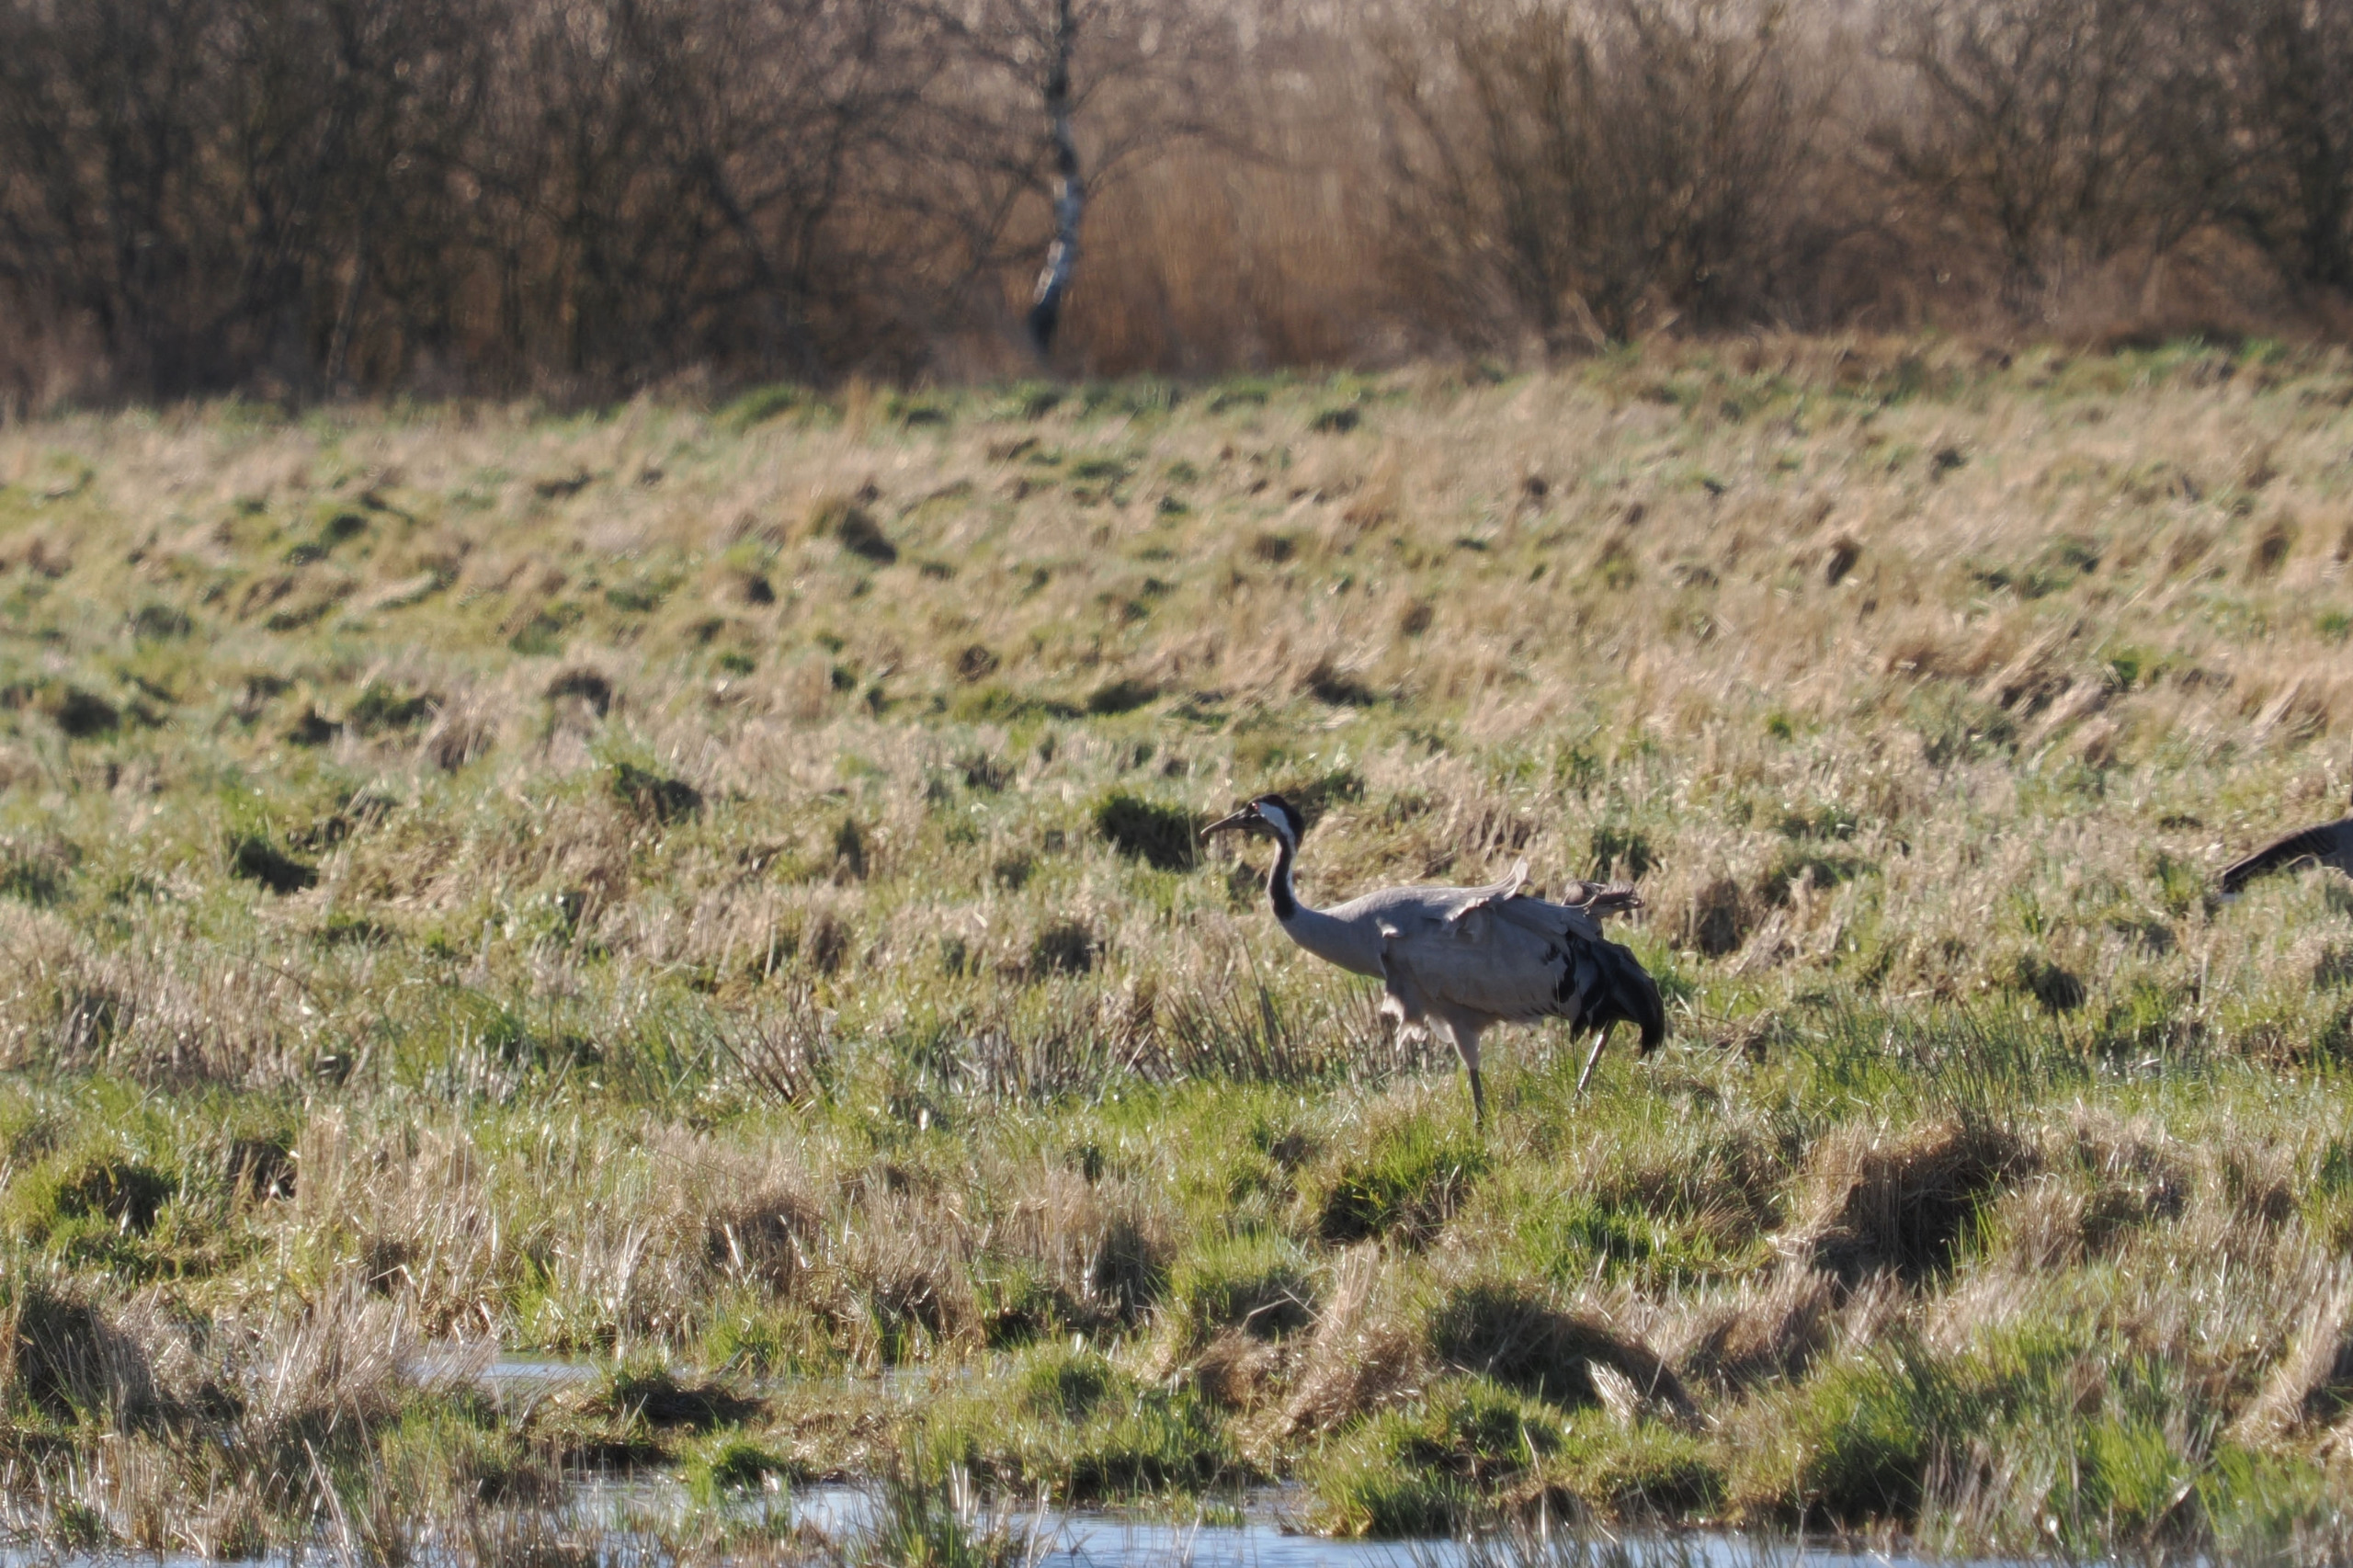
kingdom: Animalia
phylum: Chordata
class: Aves
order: Gruiformes
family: Gruidae
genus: Grus
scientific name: Grus grus
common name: Trane
